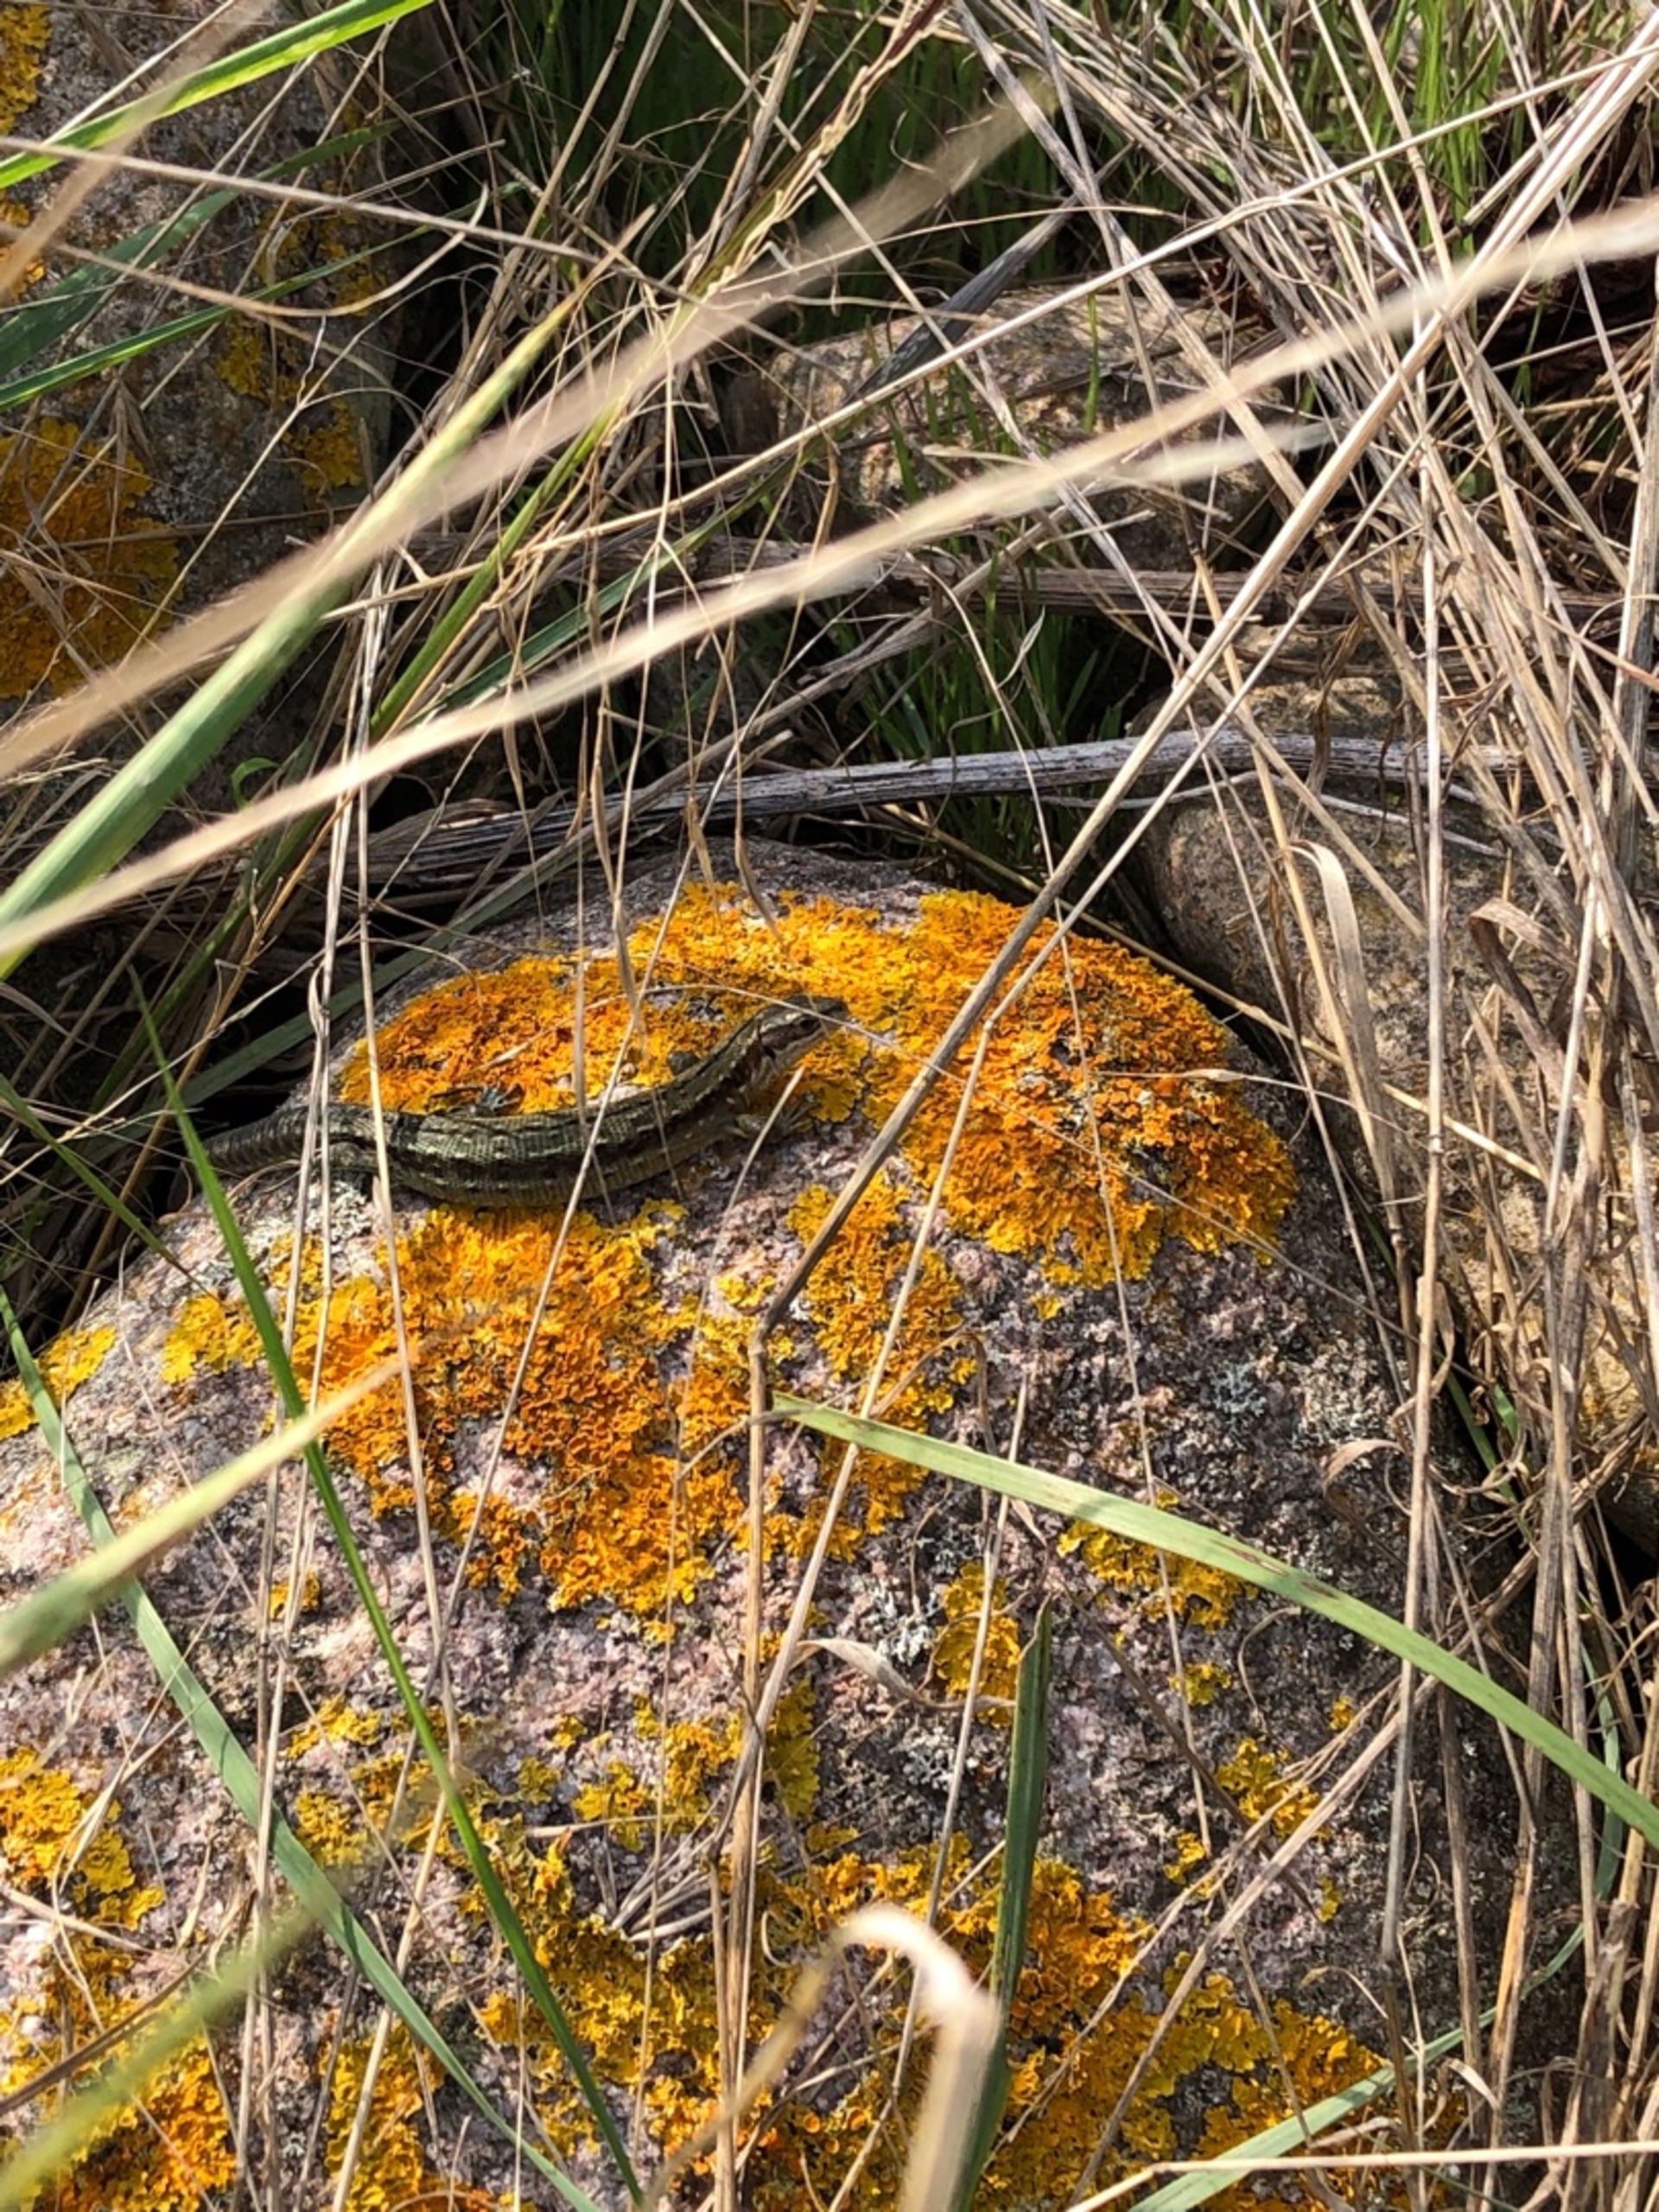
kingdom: Animalia
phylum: Chordata
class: Squamata
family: Lacertidae
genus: Zootoca
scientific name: Zootoca vivipara
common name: Skovfirben
